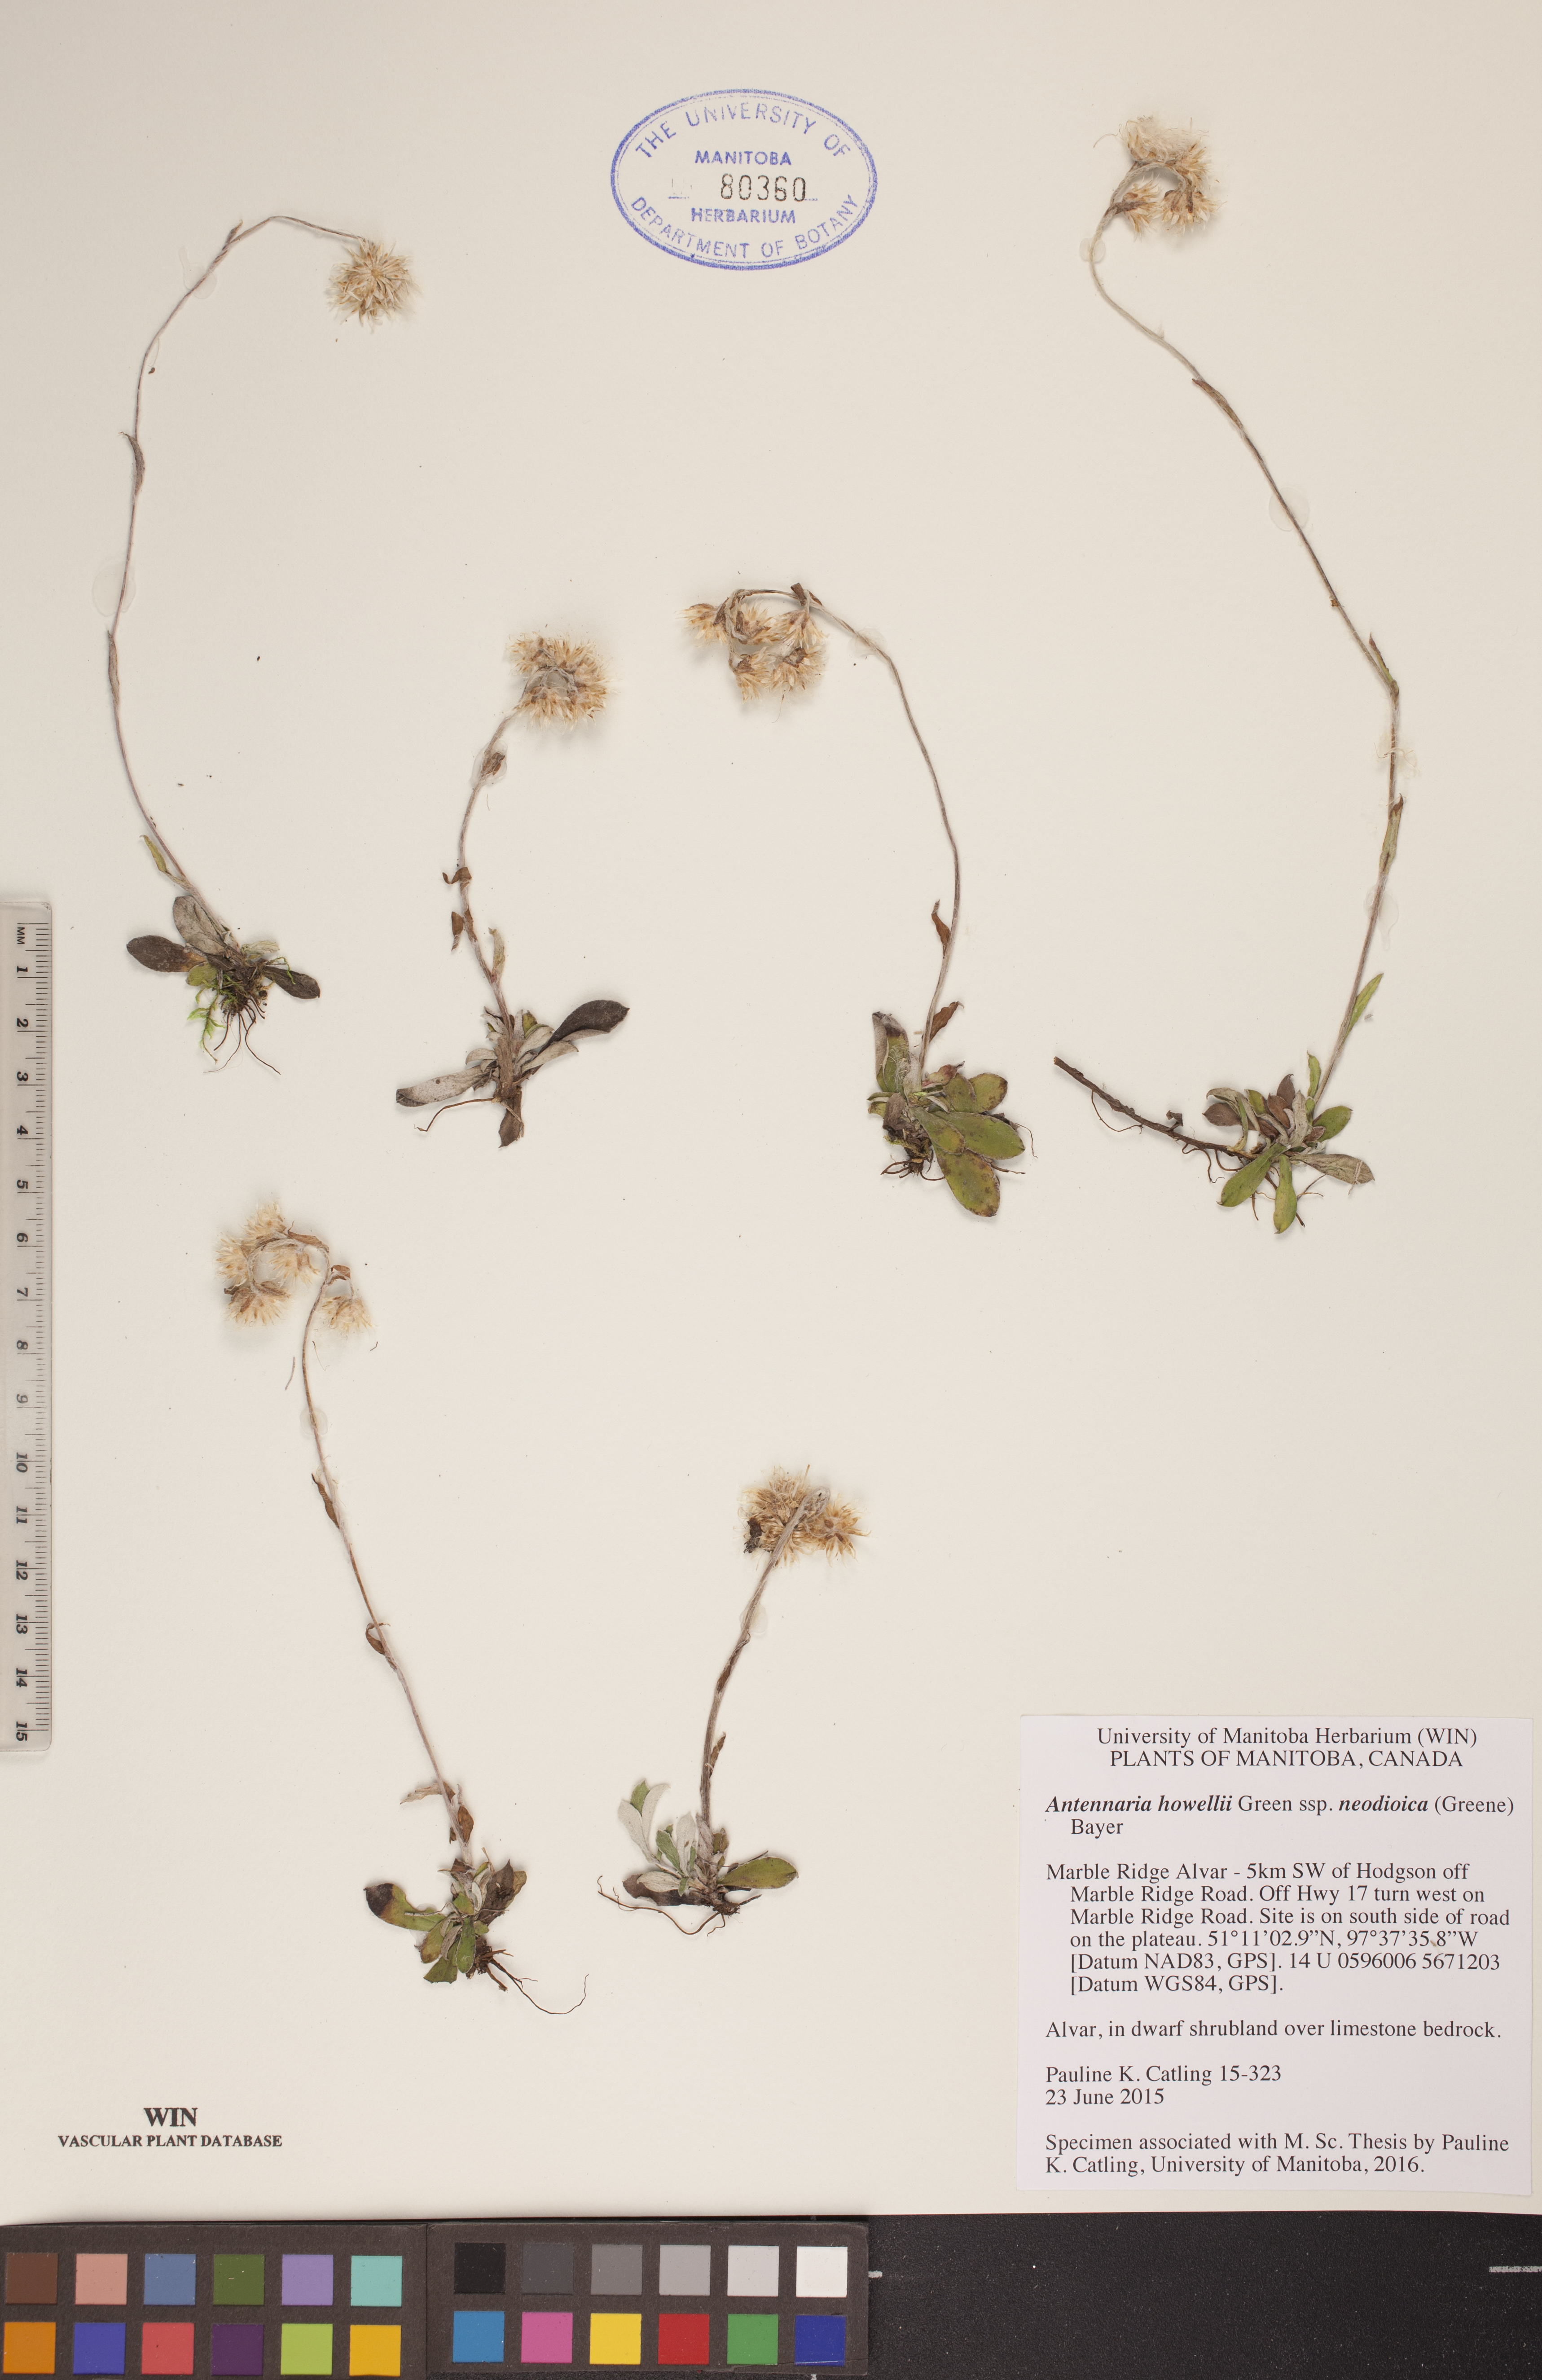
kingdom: Plantae
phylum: Tracheophyta
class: Magnoliopsida
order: Asterales
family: Asteraceae
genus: Antennaria
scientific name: Antennaria howellii
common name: Howell's pussytoes
